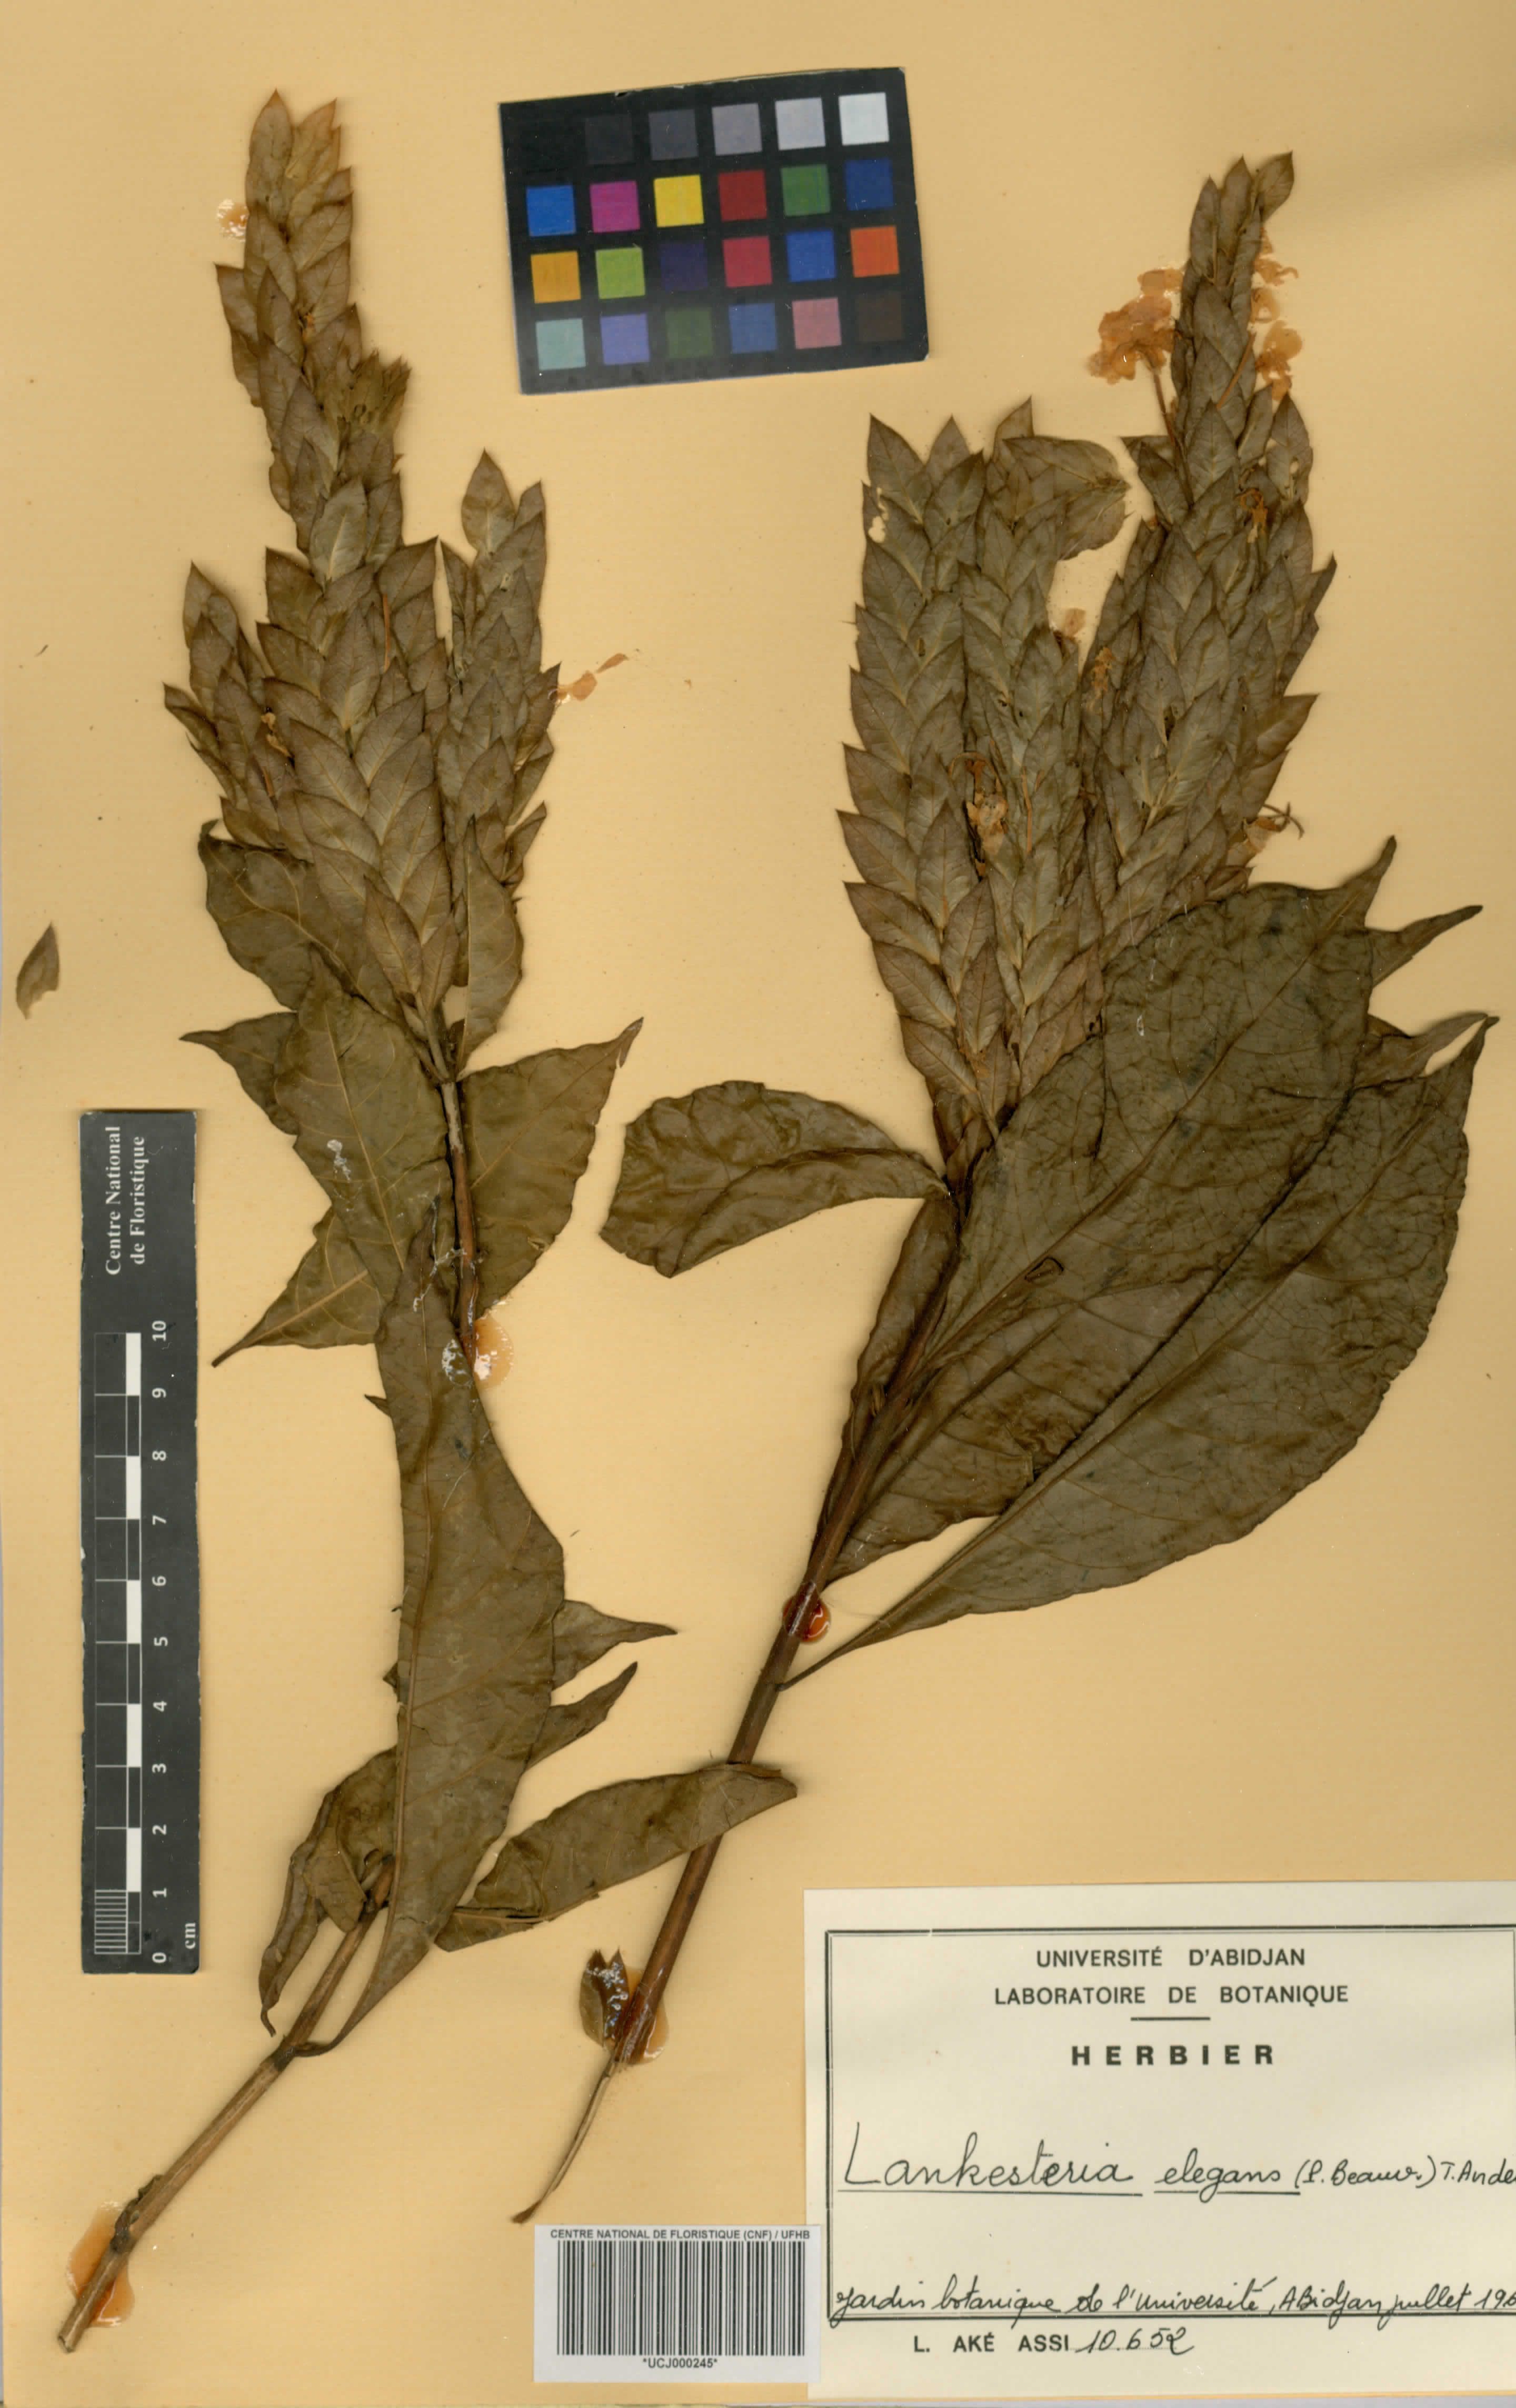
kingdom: Plantae
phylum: Tracheophyta
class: Magnoliopsida
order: Lamiales
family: Acanthaceae
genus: Lankesteria
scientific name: Lankesteria elegans
